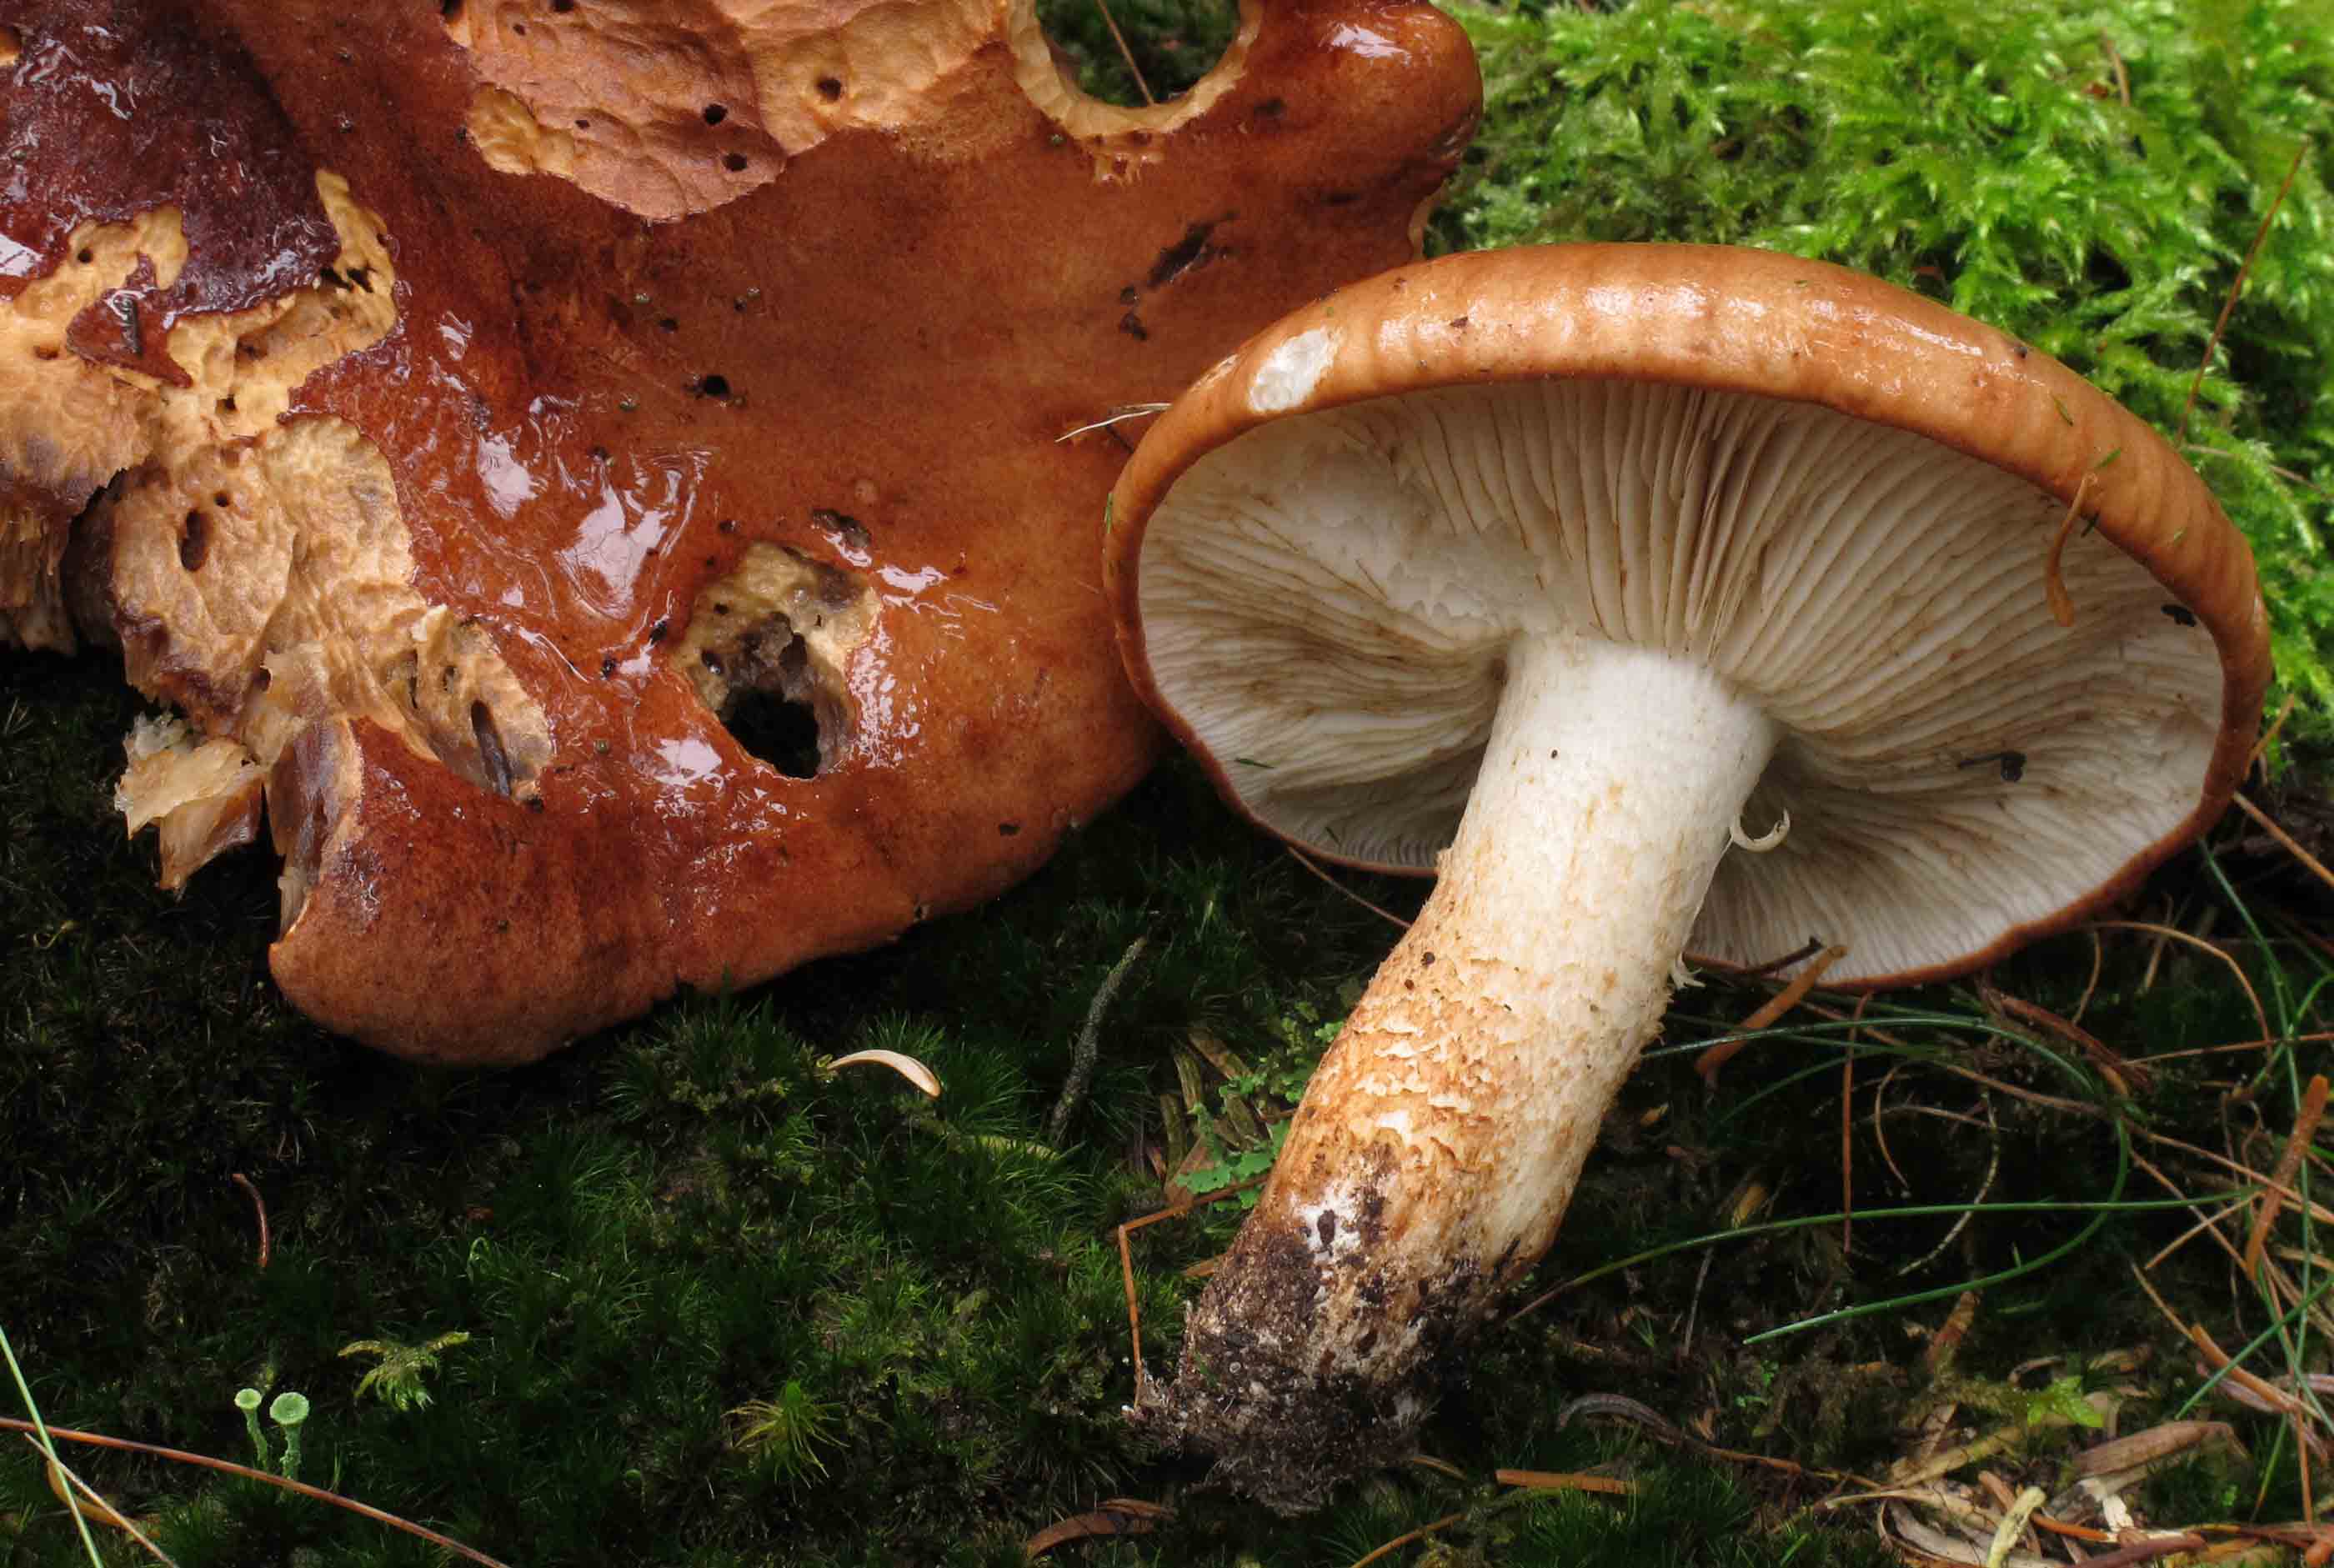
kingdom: Fungi
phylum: Basidiomycota
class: Agaricomycetes
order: Agaricales
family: Tricholomataceae
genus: Tricholoma
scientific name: Tricholoma stans
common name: stolt ridderhat
